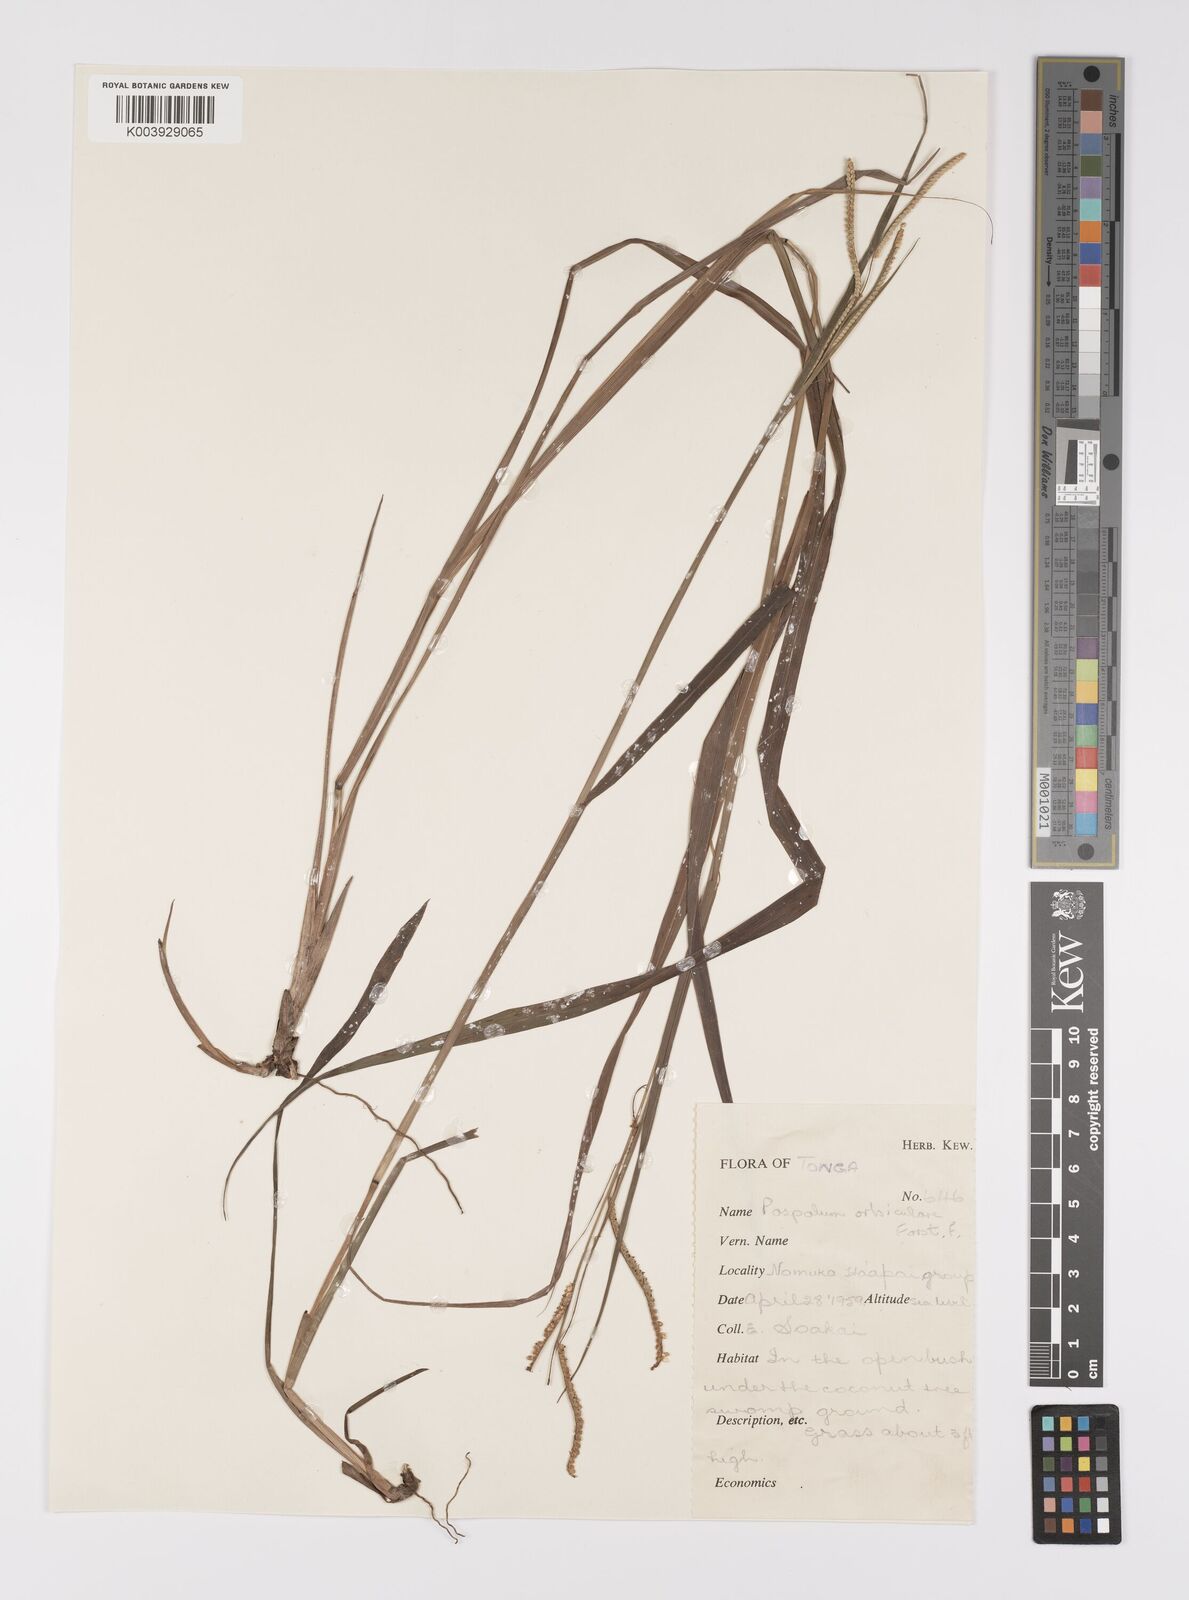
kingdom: Plantae
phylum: Tracheophyta
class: Liliopsida
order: Poales
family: Poaceae
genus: Paspalum
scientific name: Paspalum scrobiculatum
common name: Kodo millet
